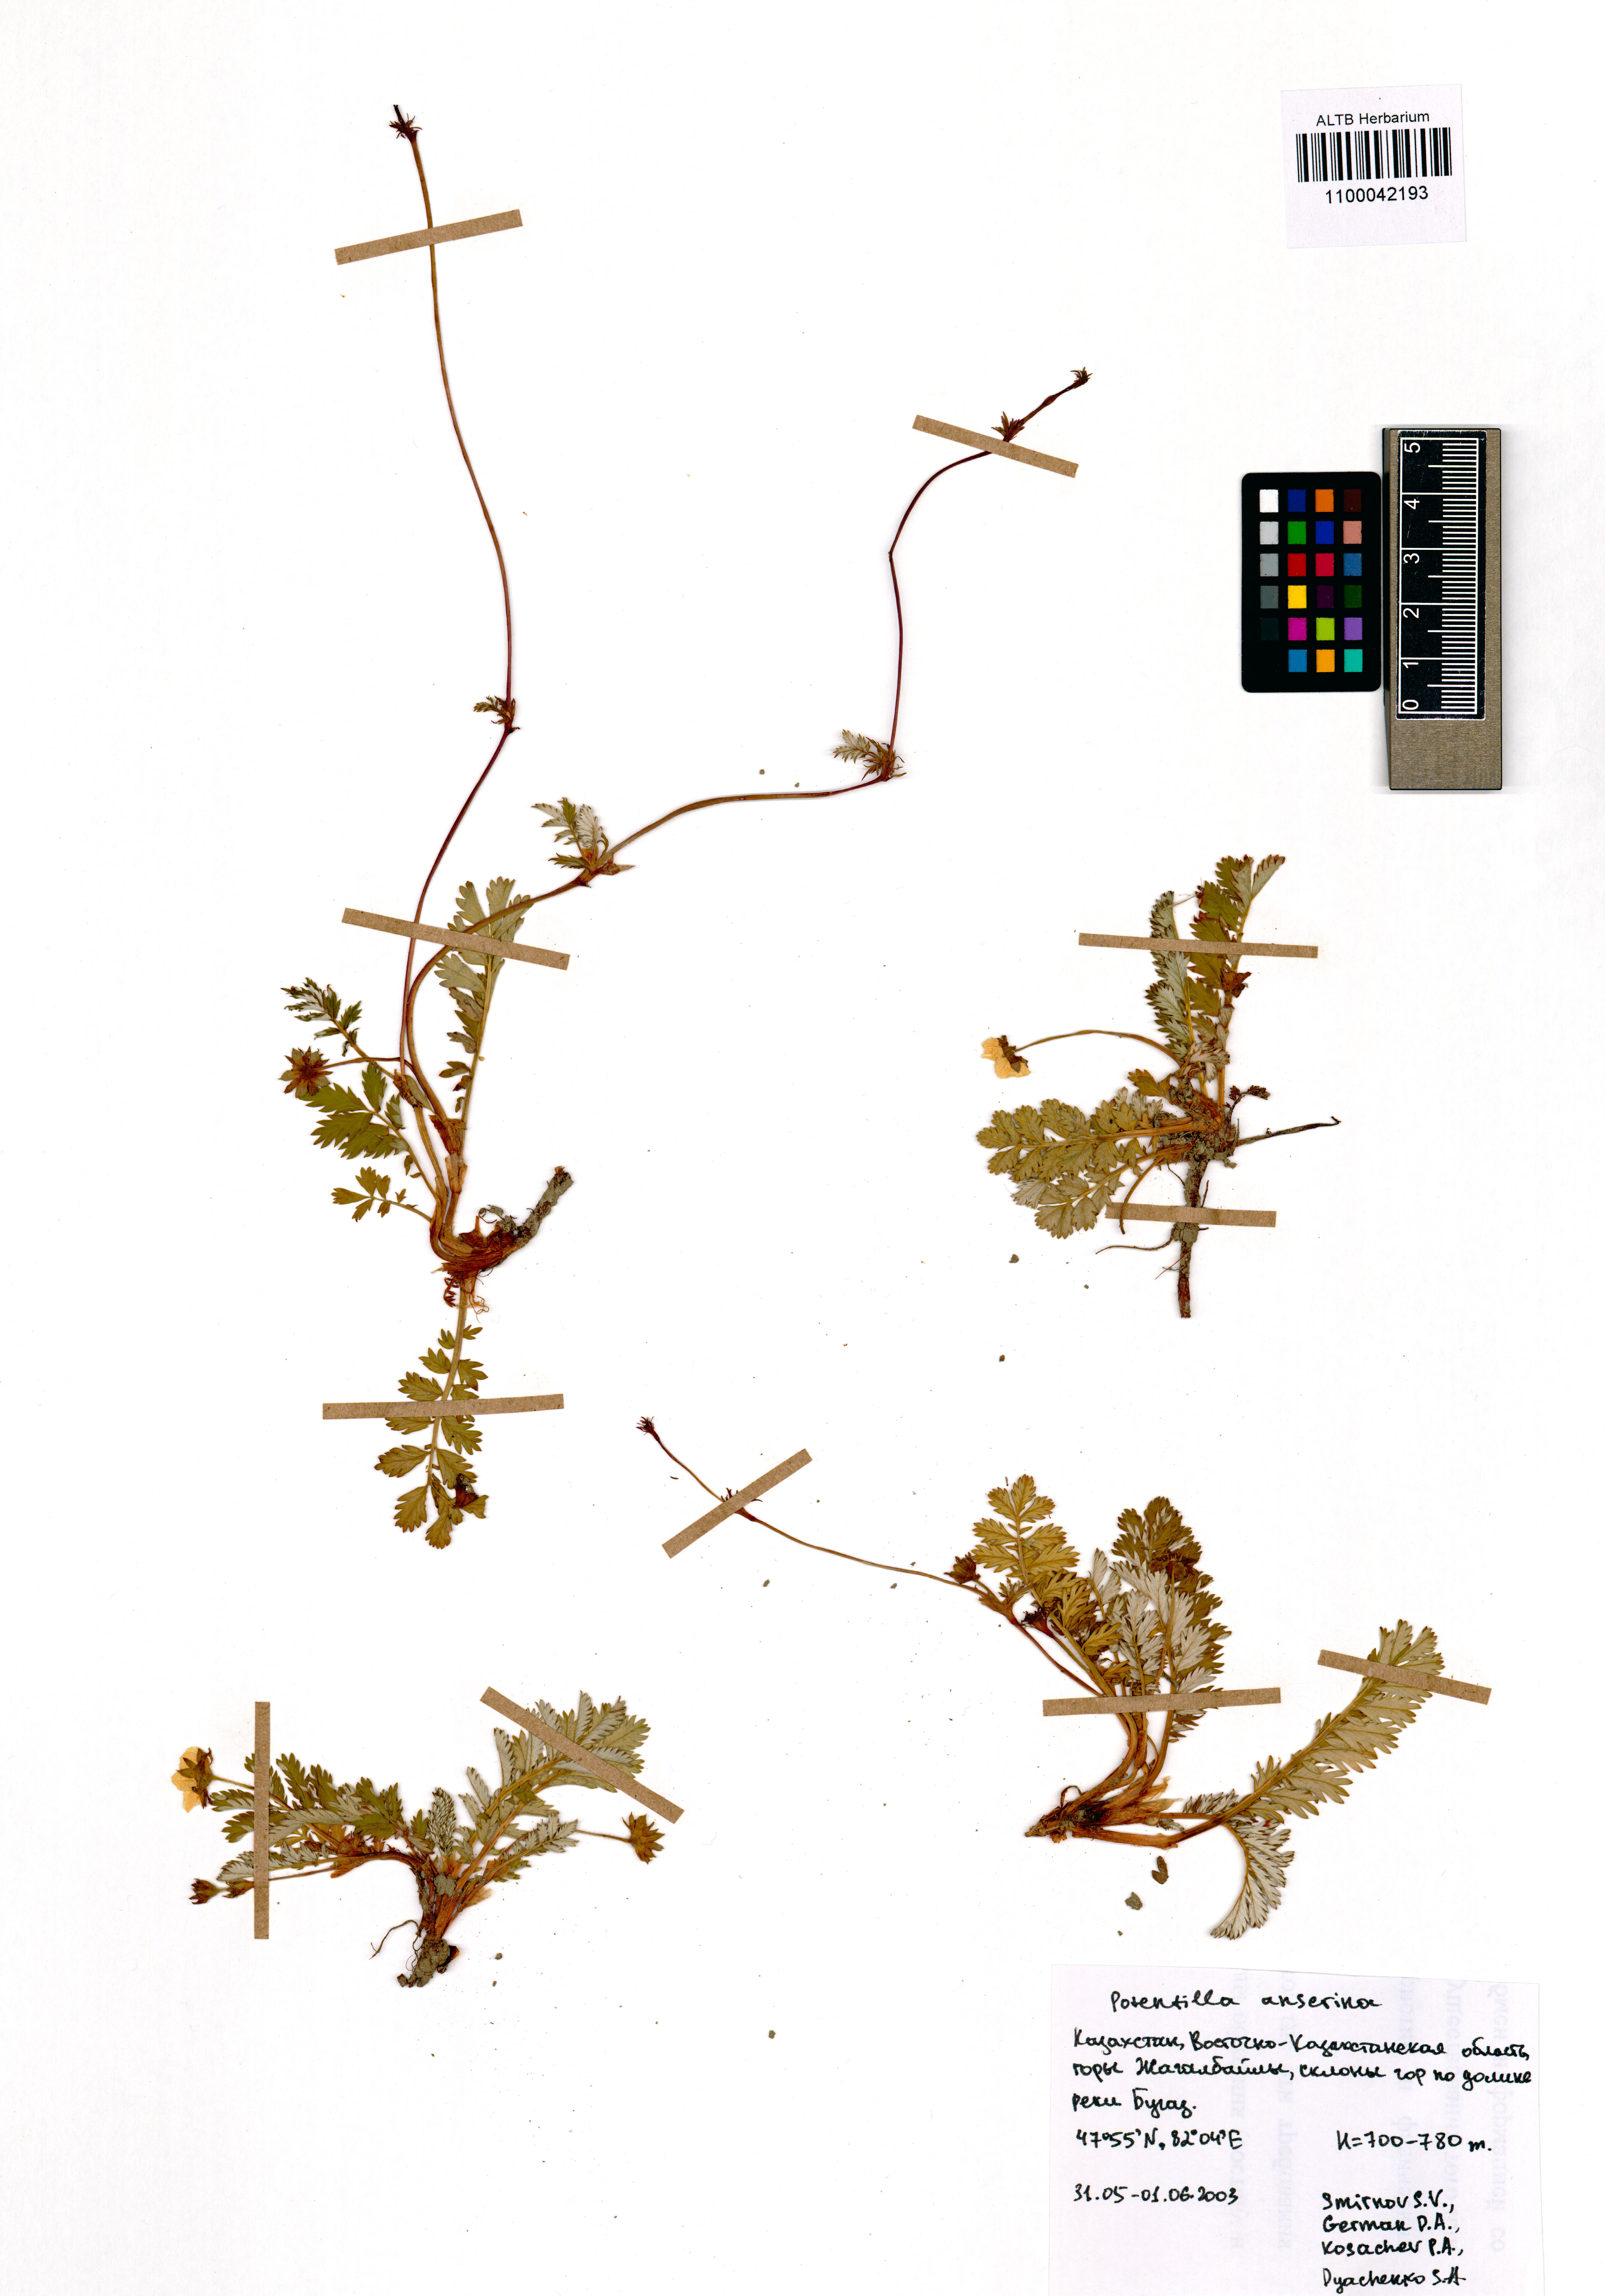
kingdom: Plantae
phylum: Tracheophyta
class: Magnoliopsida
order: Rosales
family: Rosaceae
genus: Argentina
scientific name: Argentina anserina
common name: Common silverweed
